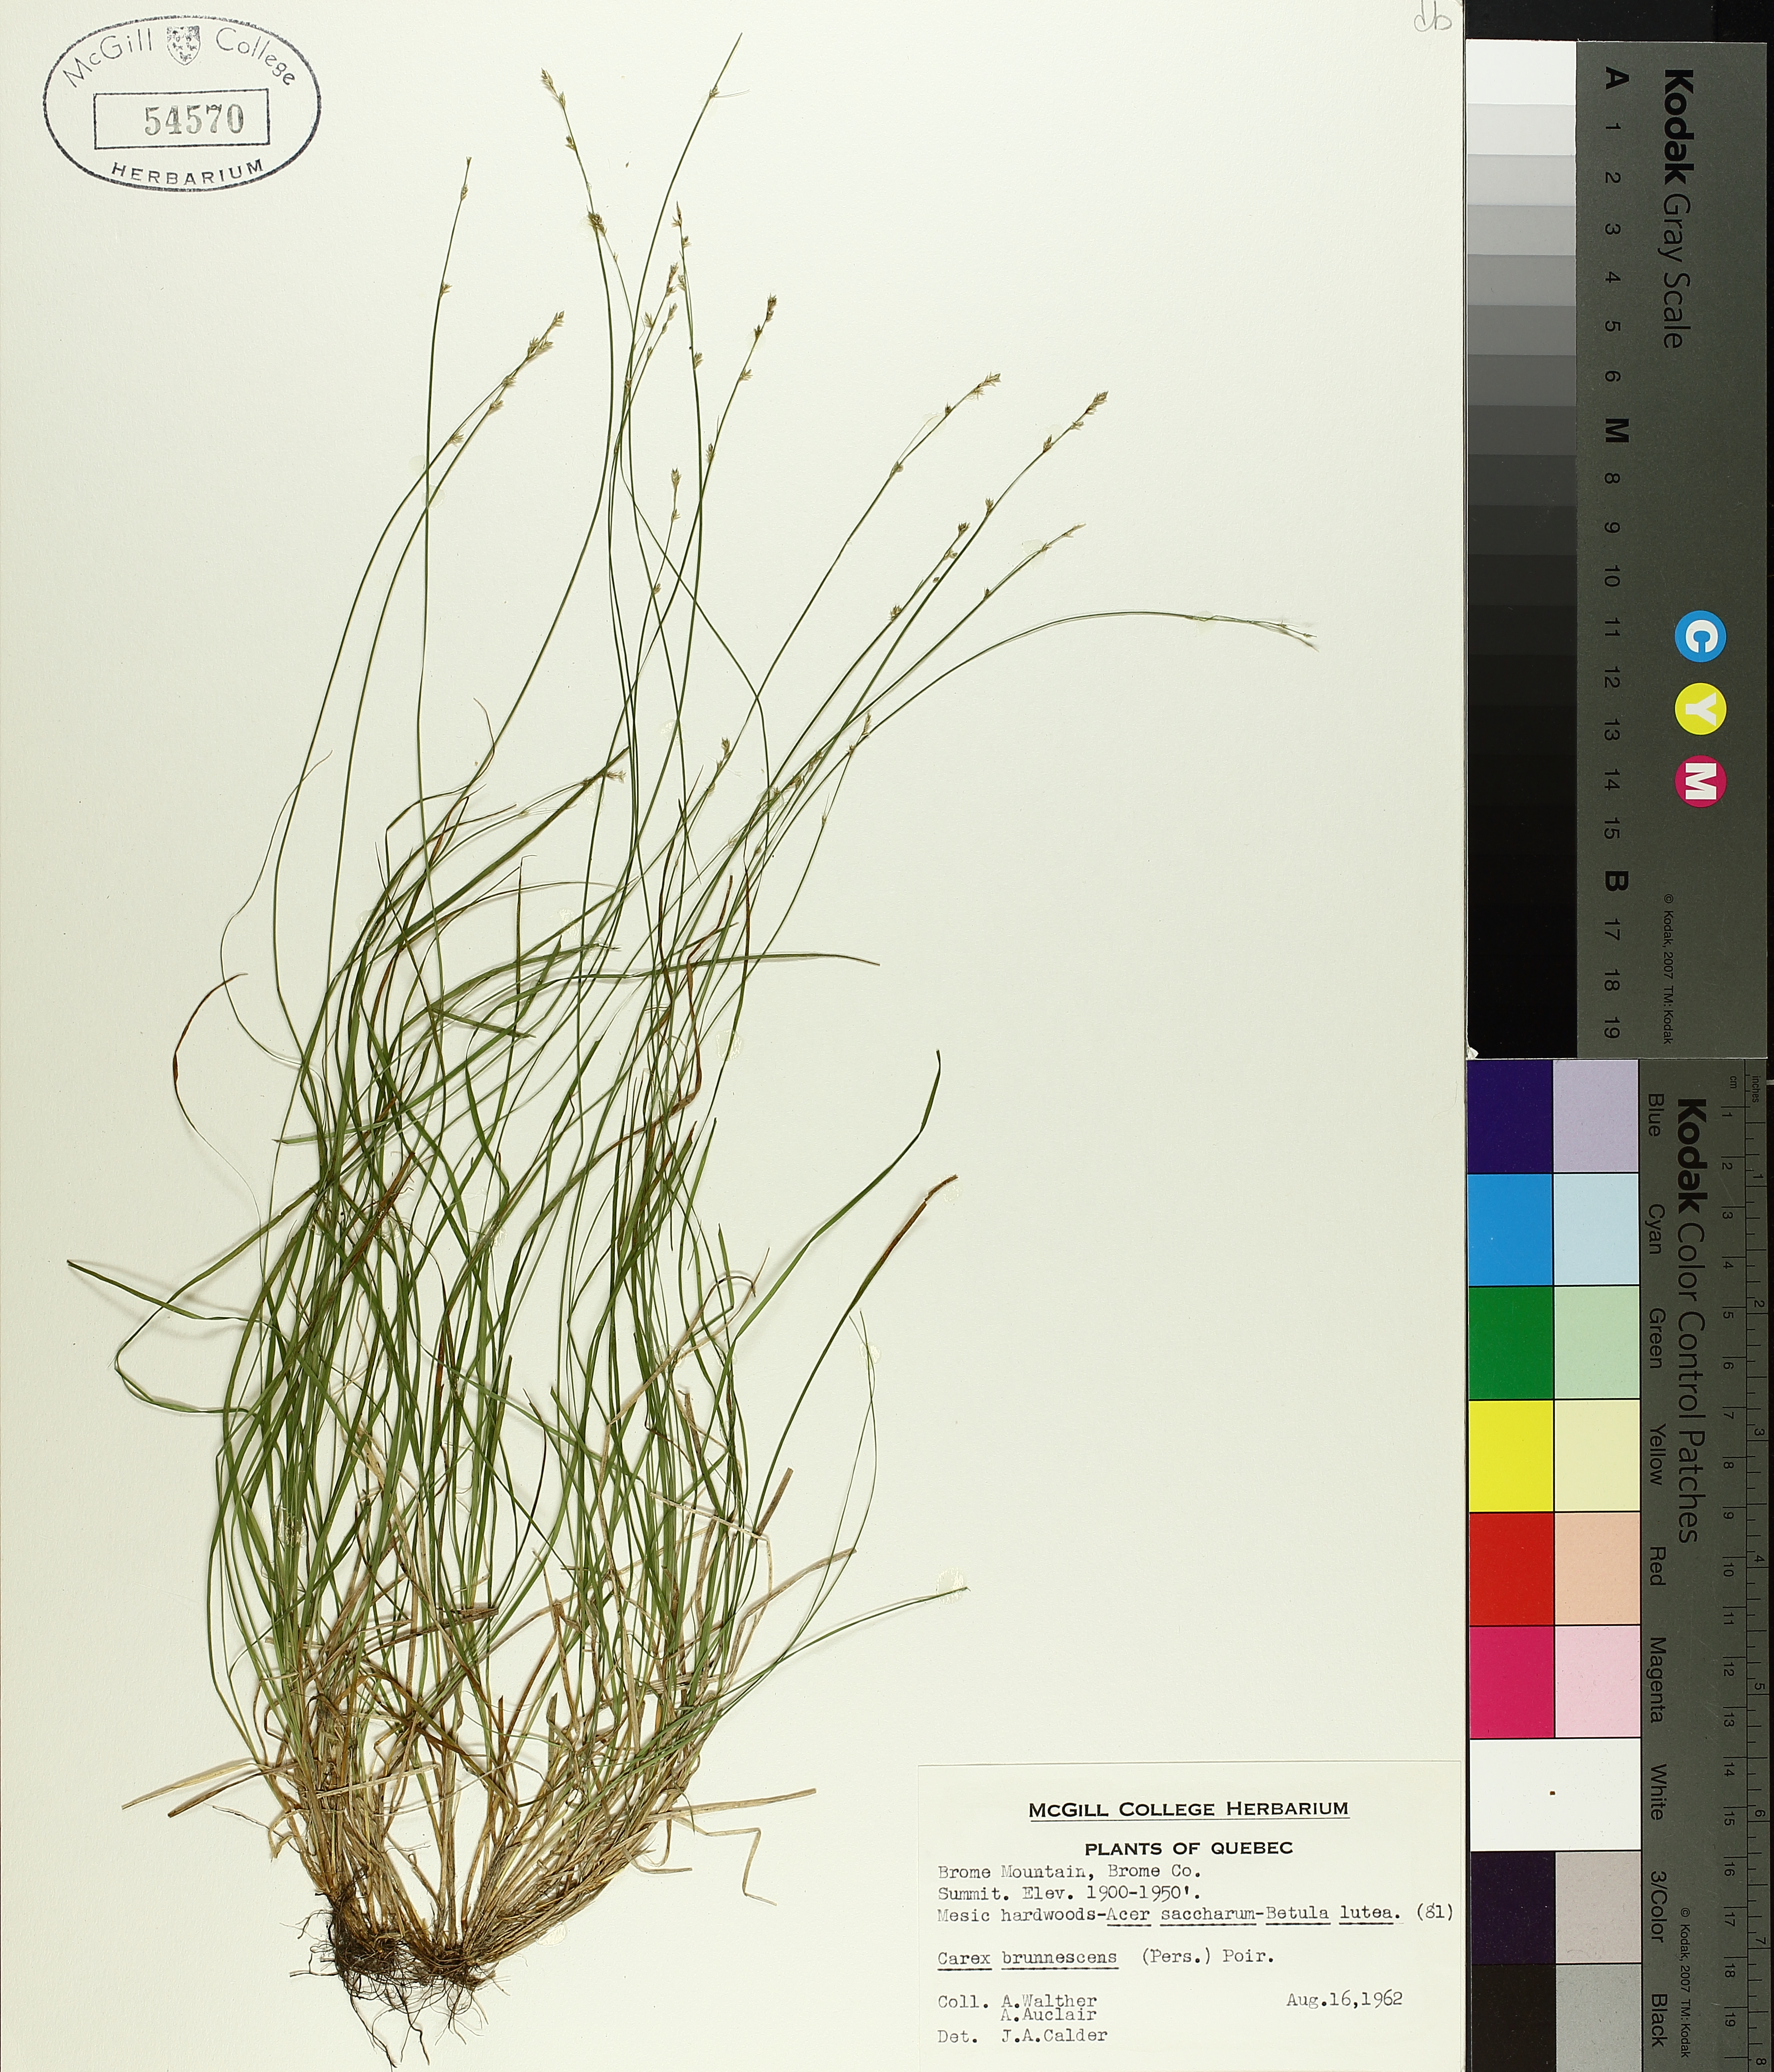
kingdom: Plantae
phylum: Tracheophyta
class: Liliopsida
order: Poales
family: Cyperaceae
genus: Carex
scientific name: Carex brunnescens
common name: Brown sedge
